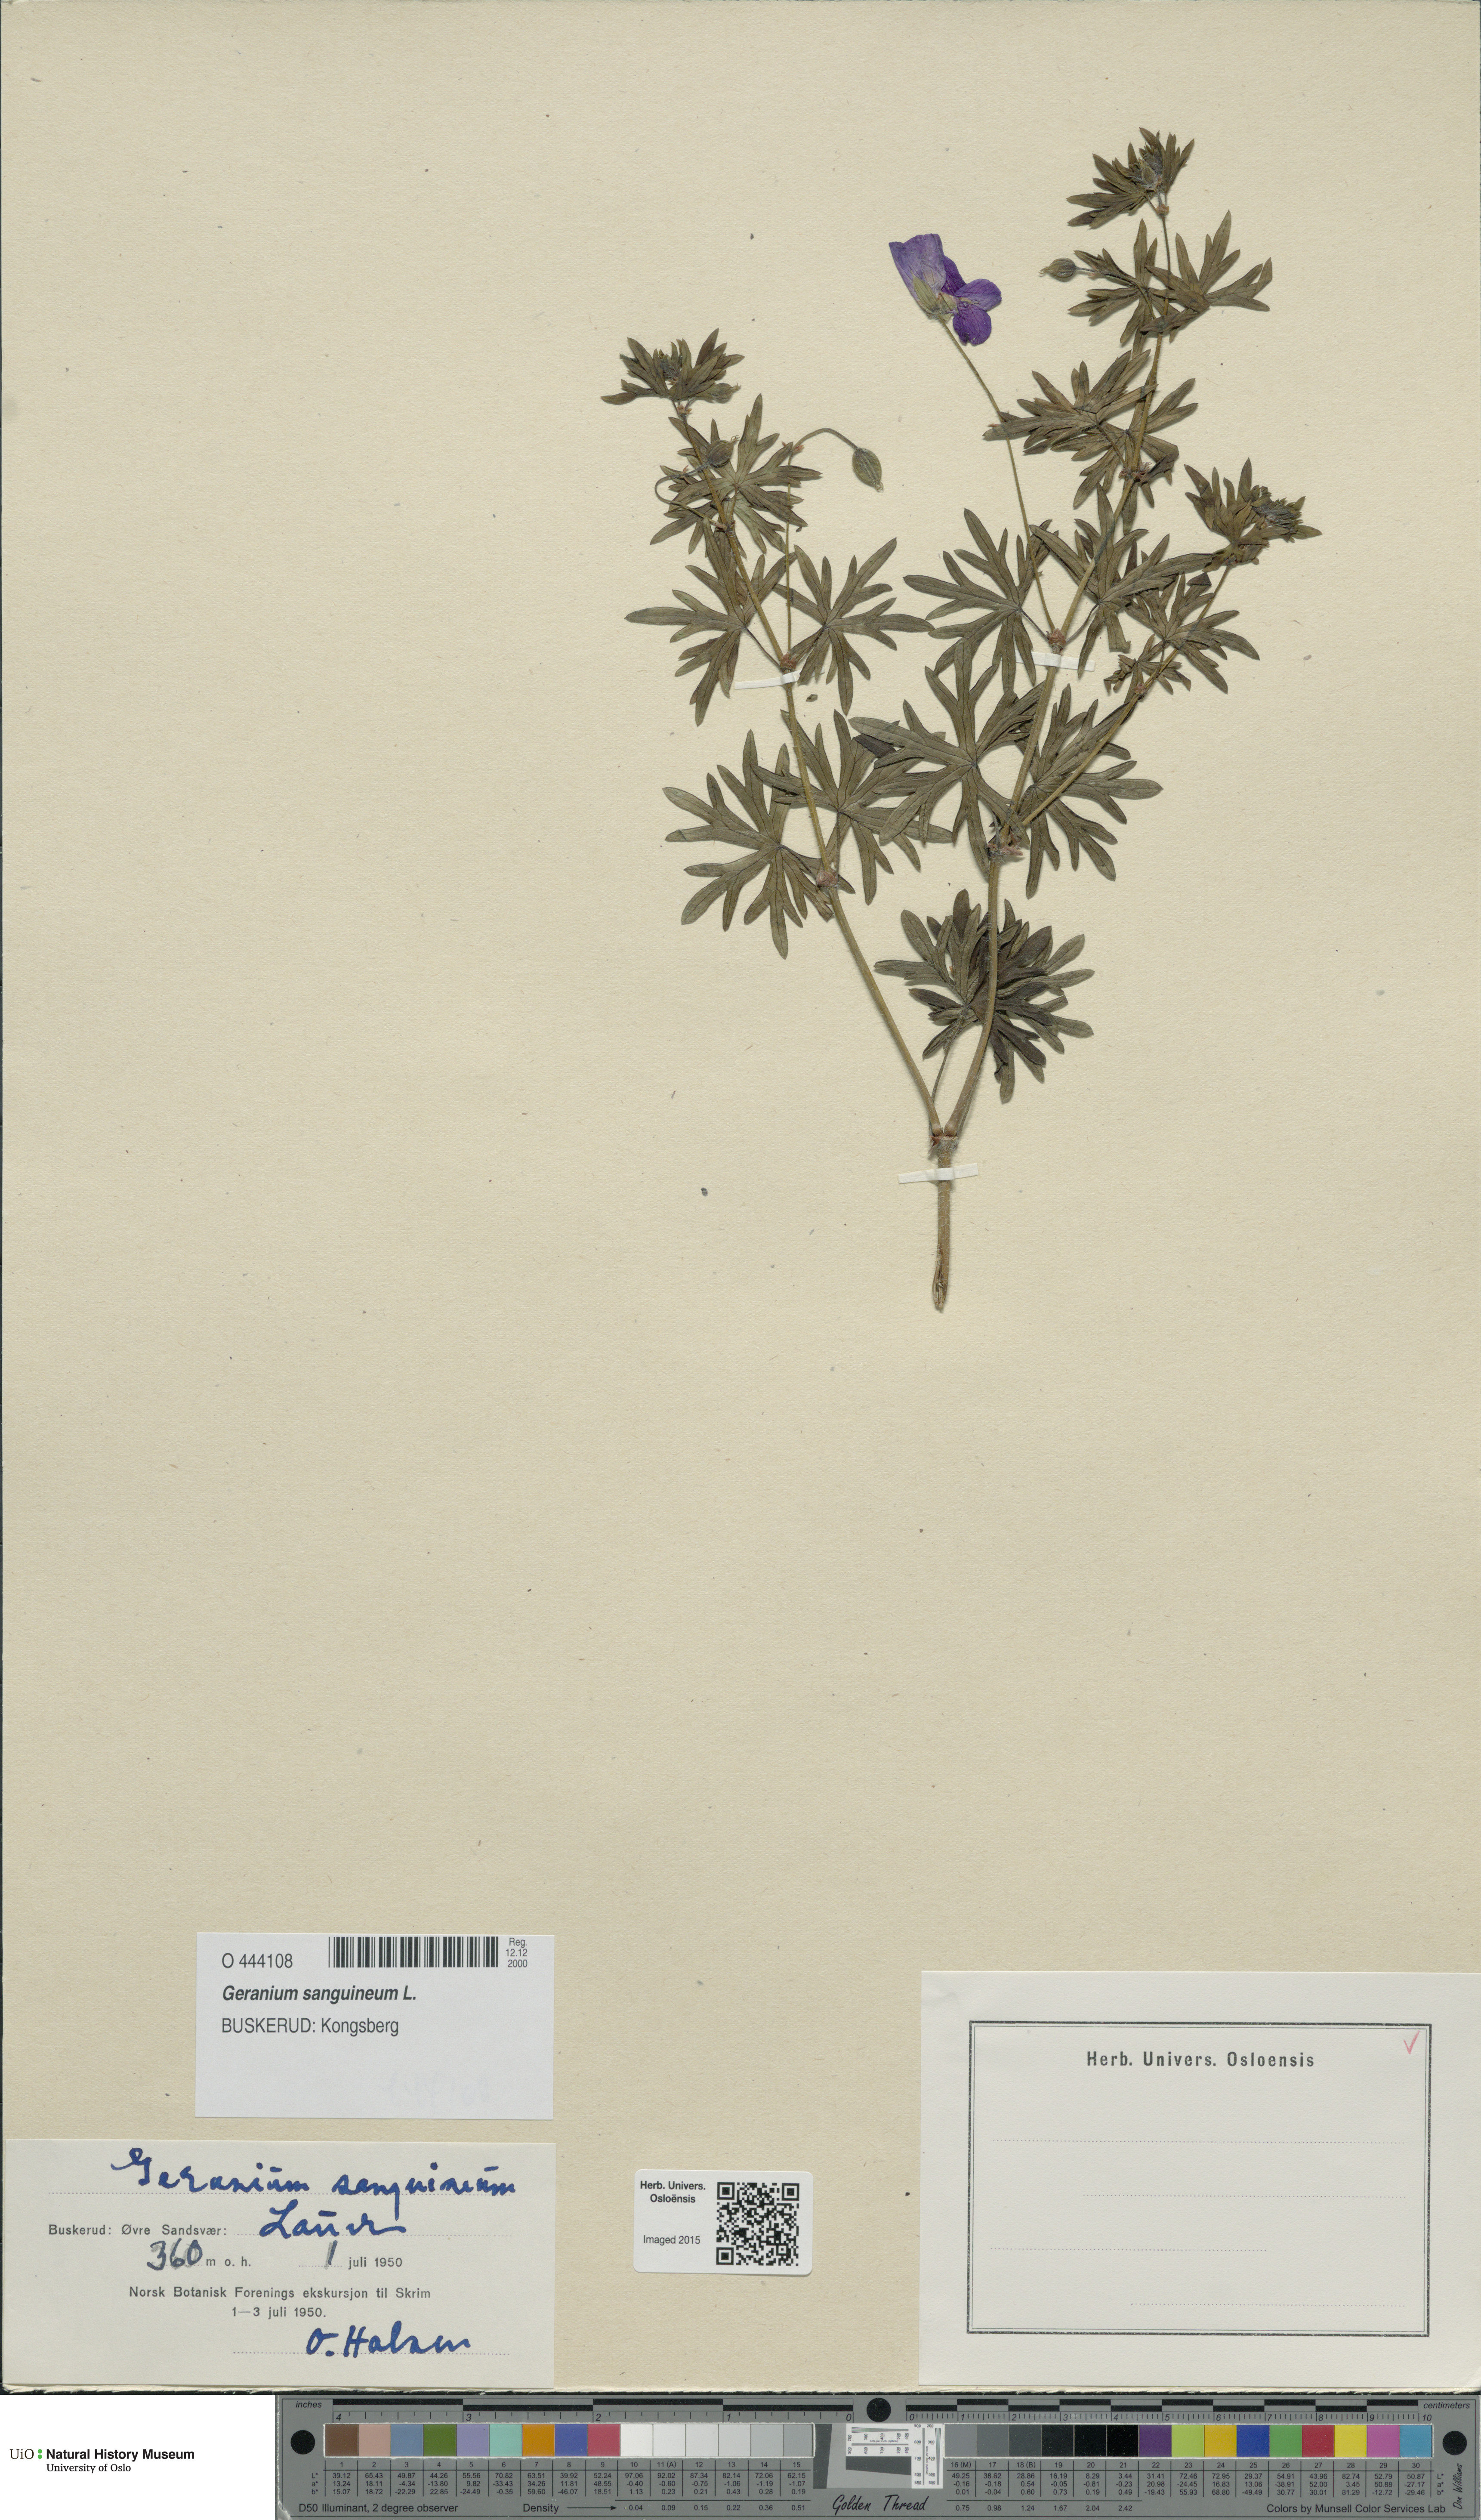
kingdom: Plantae
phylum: Tracheophyta
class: Magnoliopsida
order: Geraniales
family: Geraniaceae
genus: Geranium
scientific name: Geranium sanguineum
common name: Bloody crane's-bill
